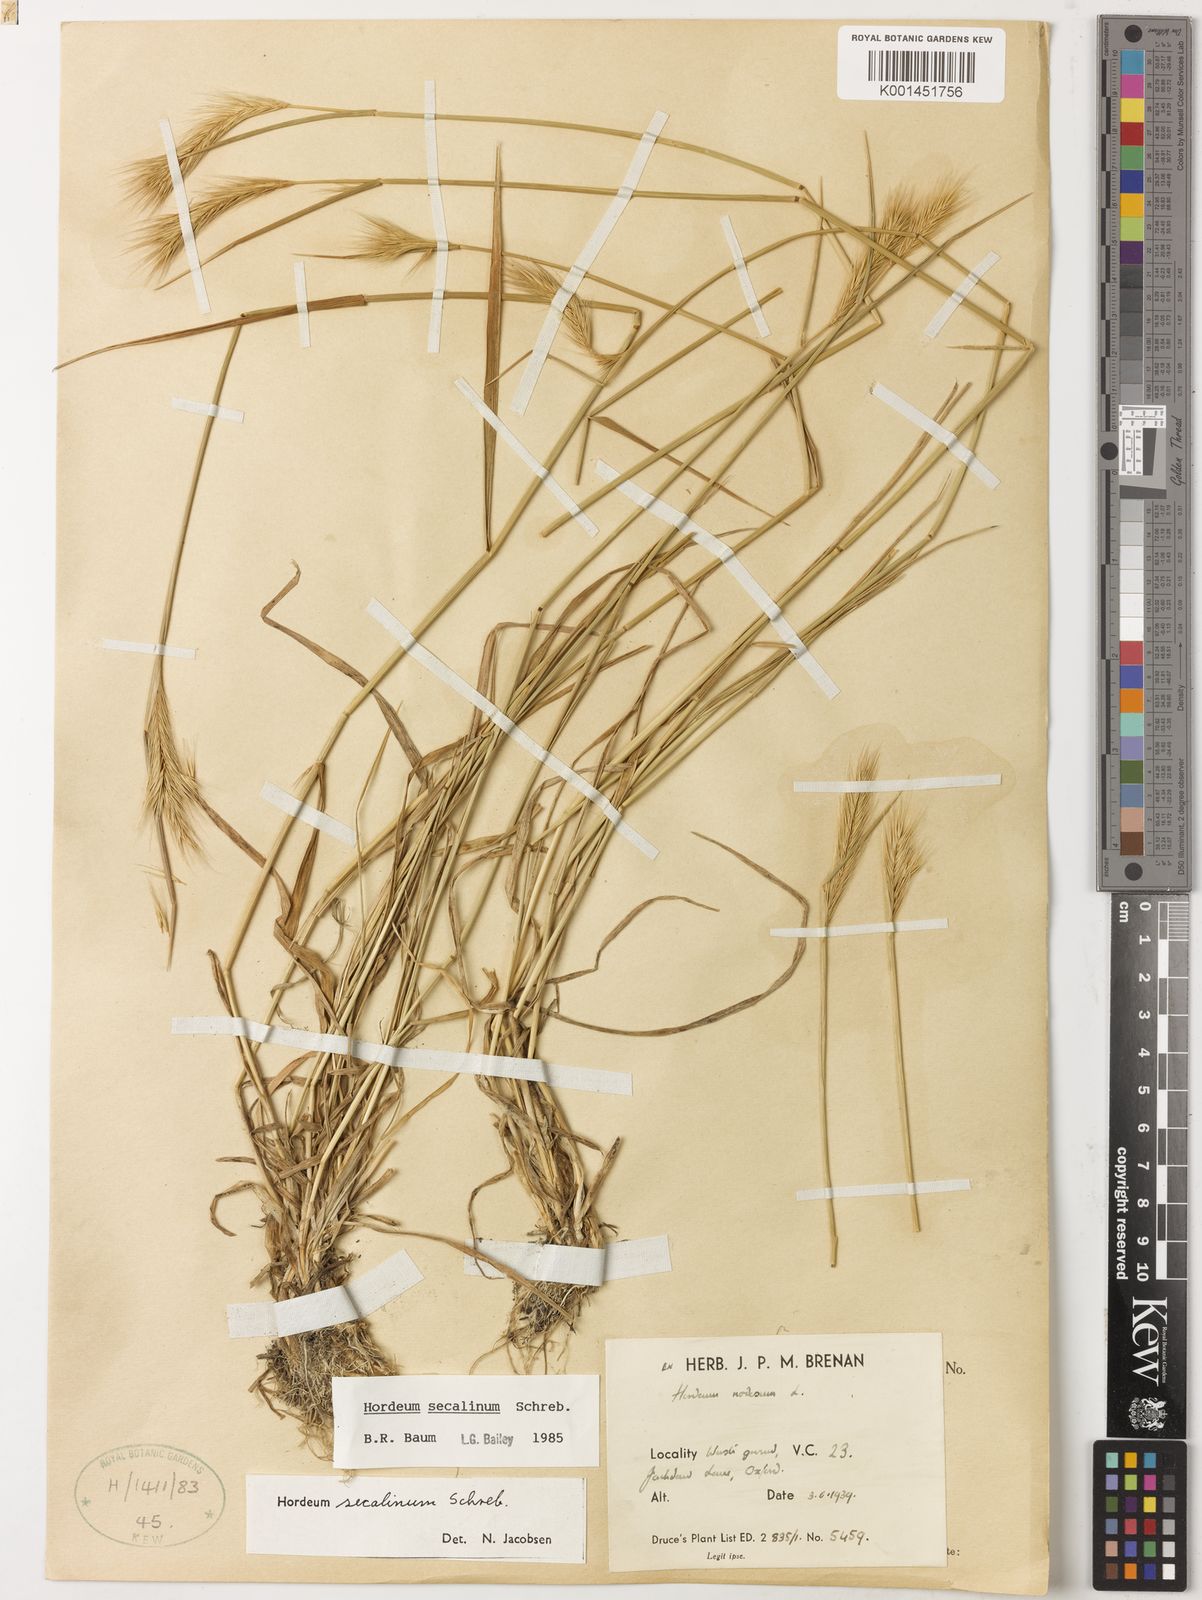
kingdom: Plantae
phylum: Tracheophyta
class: Liliopsida
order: Poales
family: Poaceae
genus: Hordeum
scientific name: Hordeum secalinum
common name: Meadow barley
